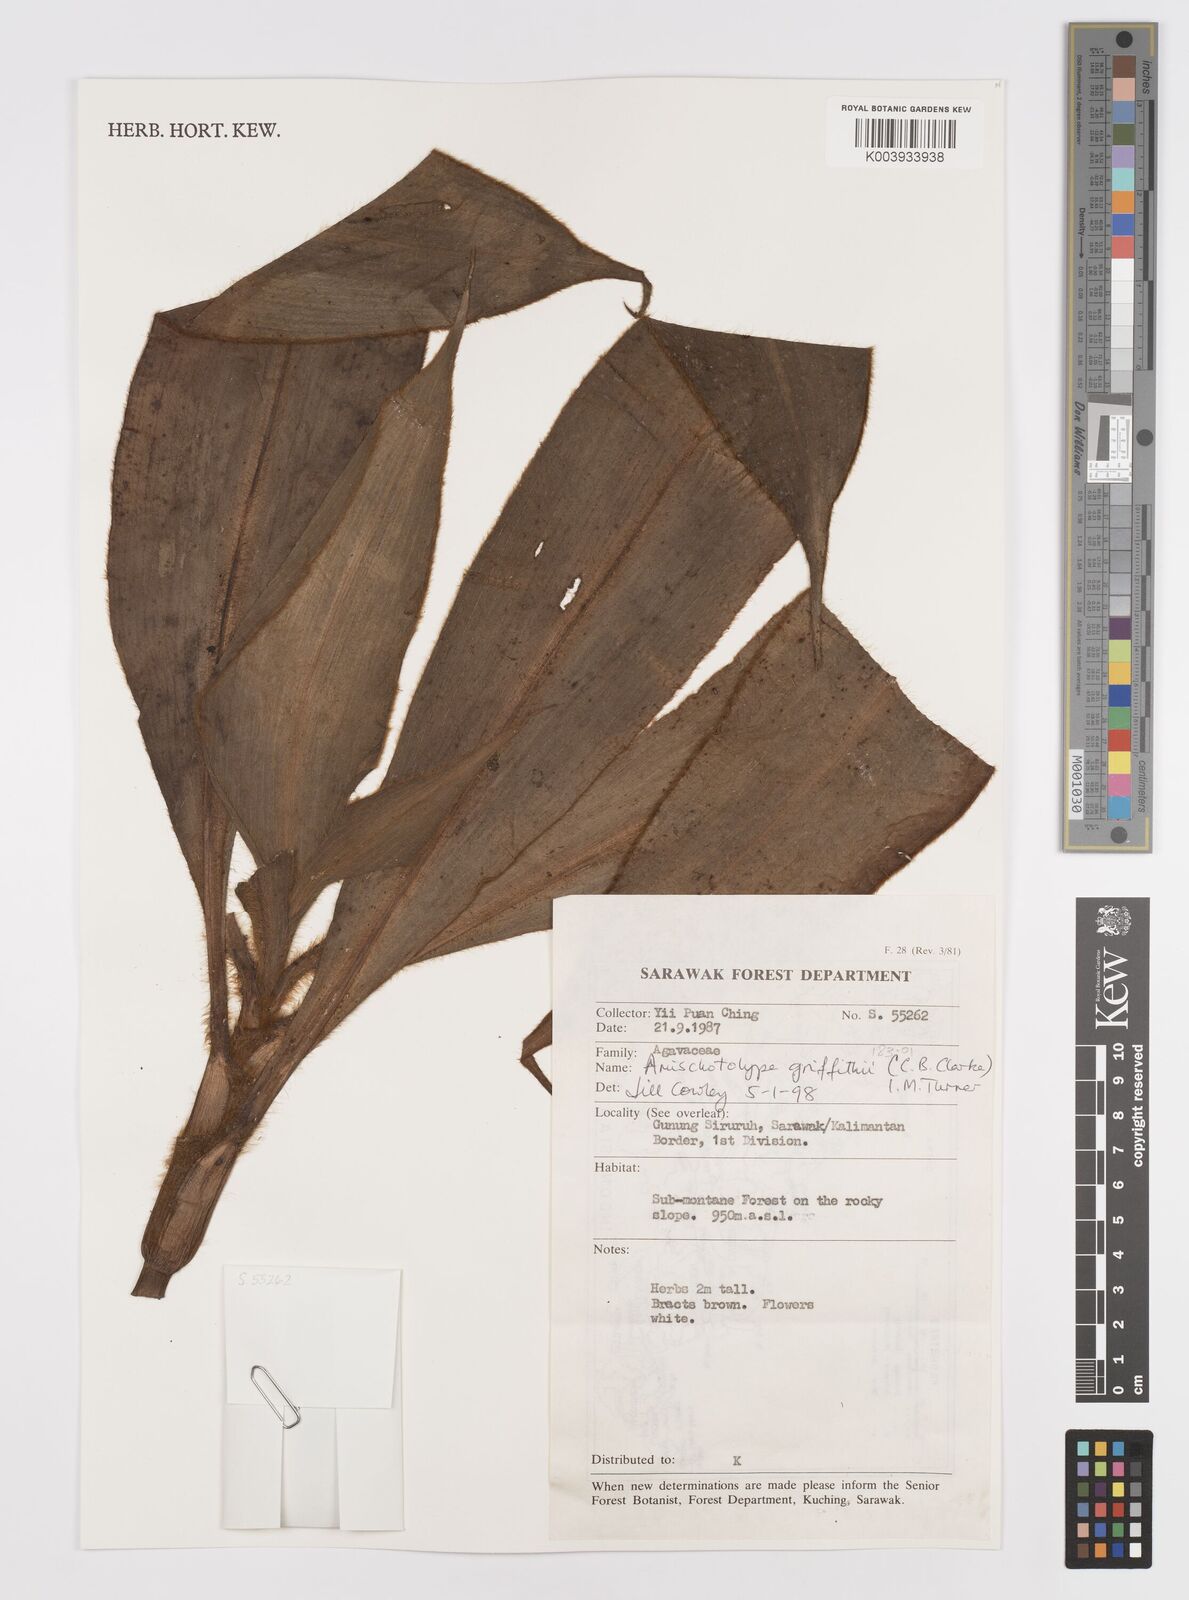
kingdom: Plantae
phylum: Tracheophyta
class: Liliopsida
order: Commelinales
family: Commelinaceae
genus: Amischotolype
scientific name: Amischotolype griffithii
